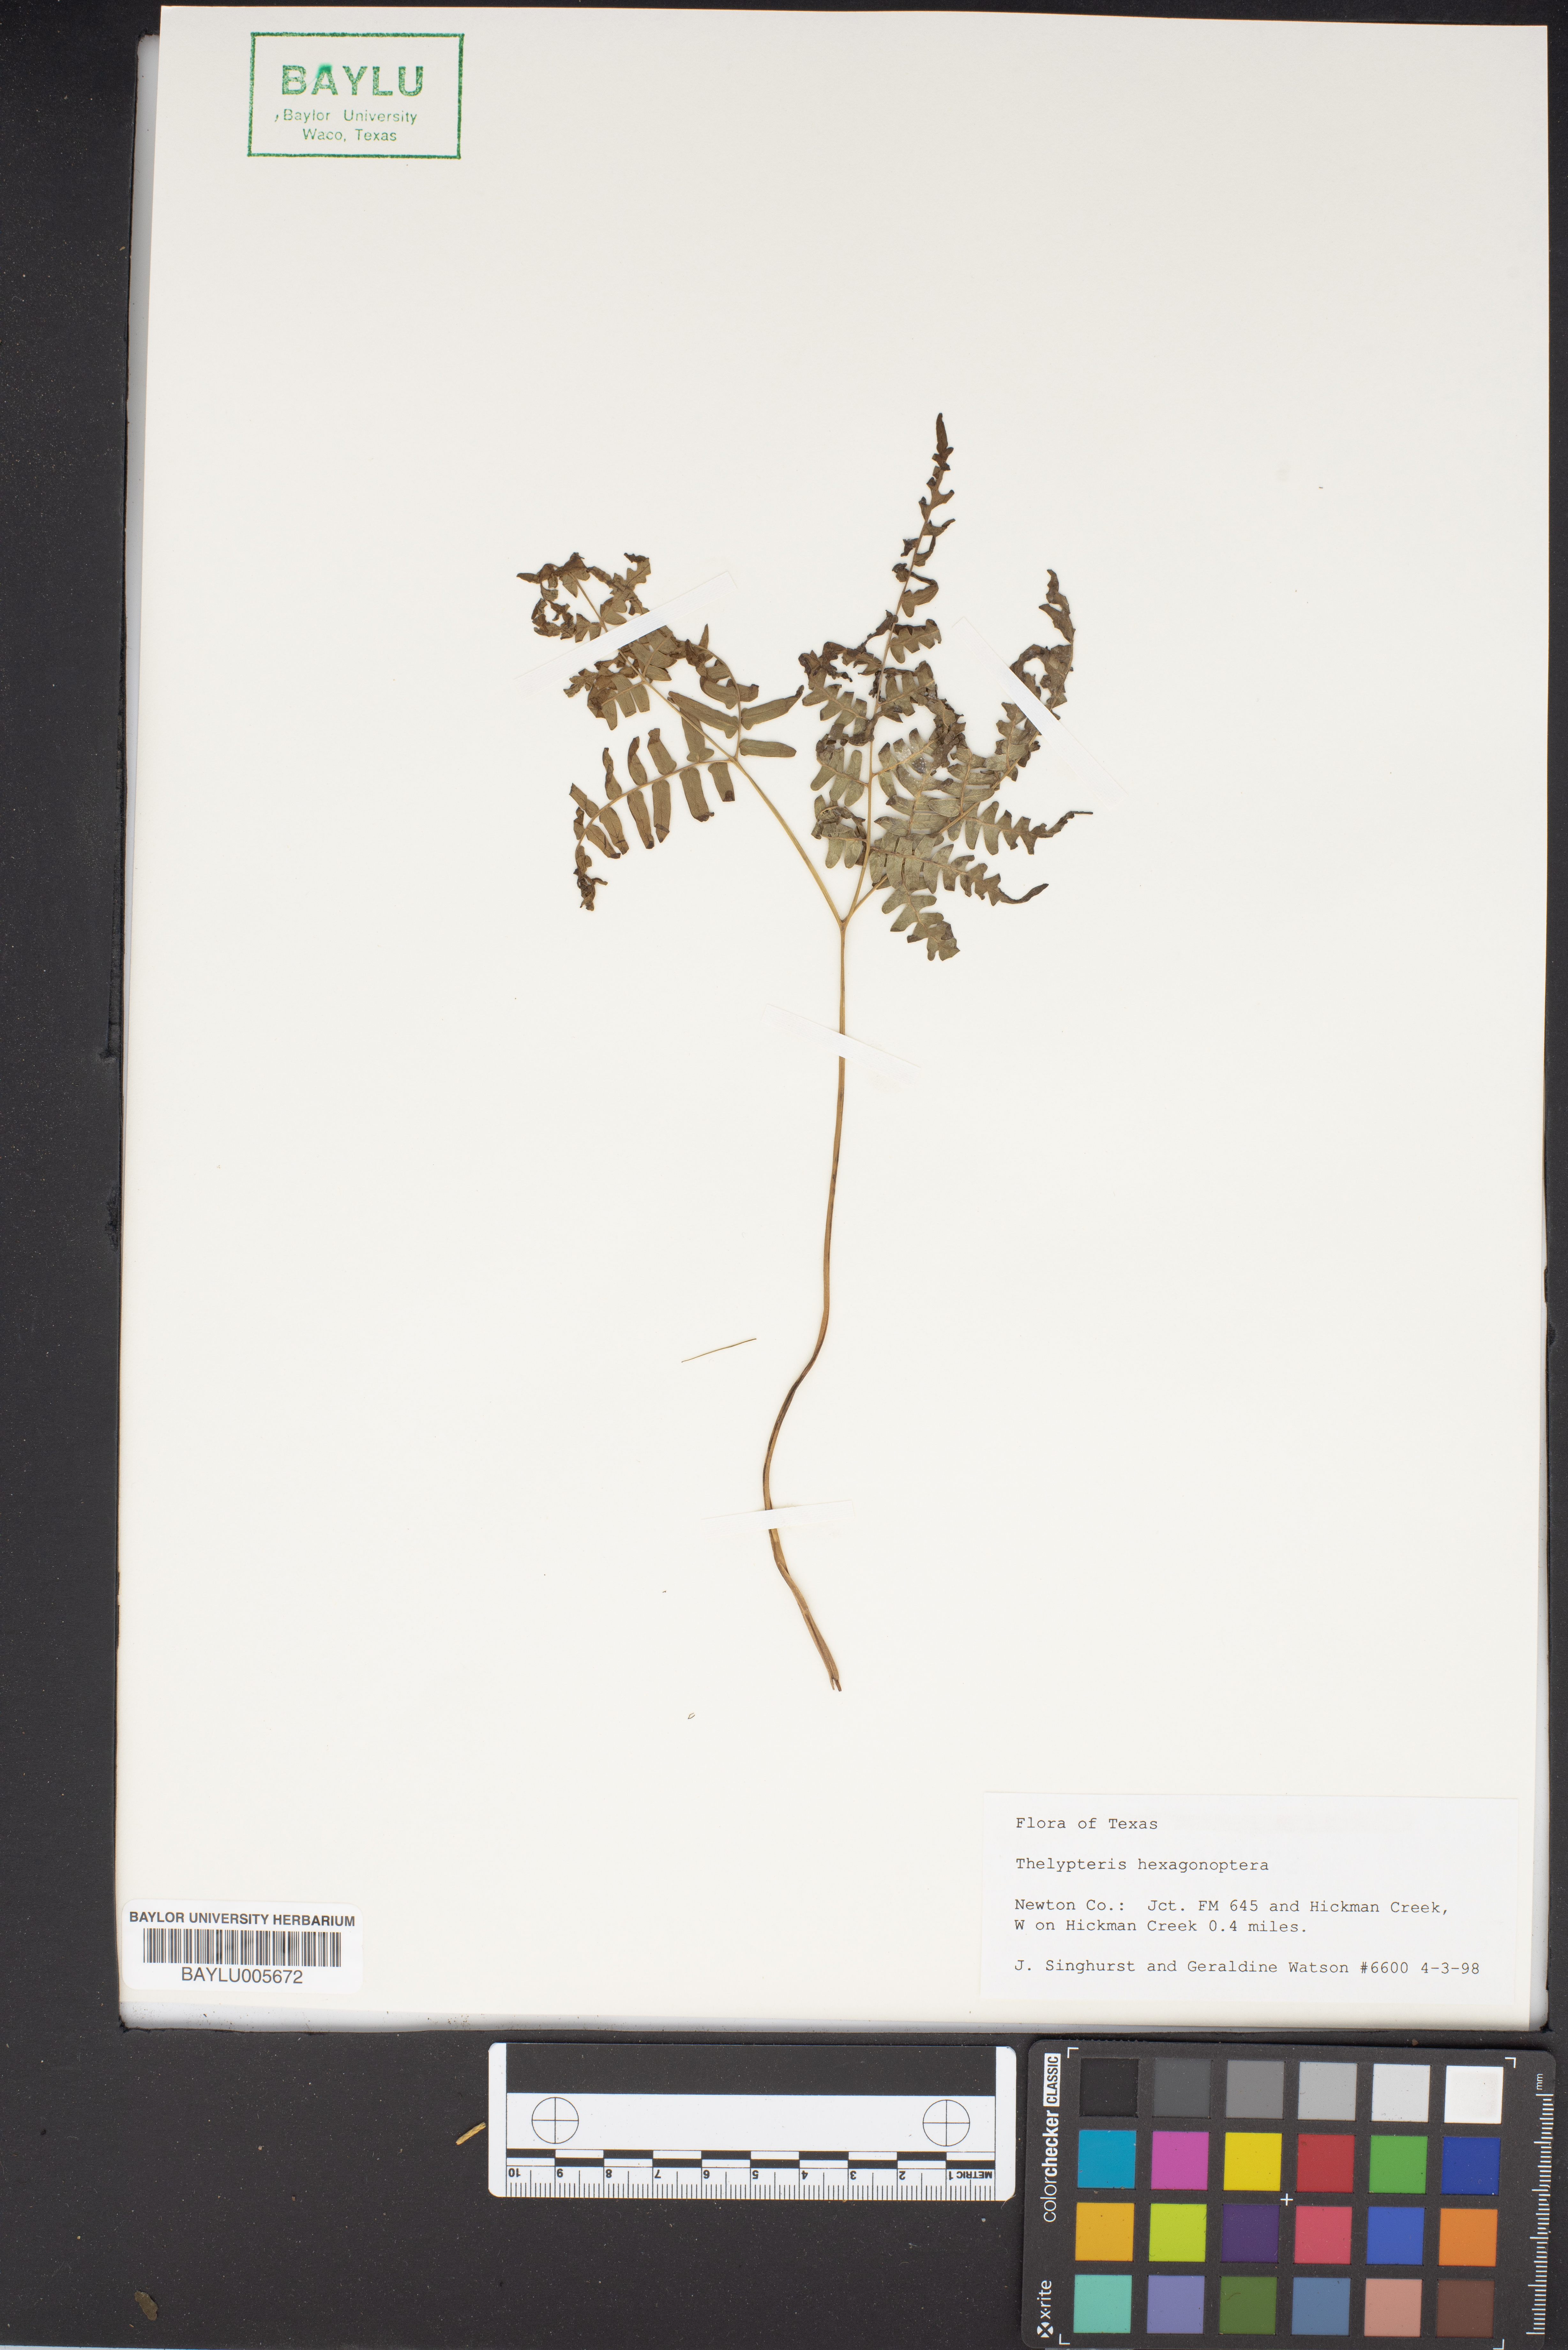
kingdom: Plantae
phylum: Tracheophyta
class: Polypodiopsida
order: Polypodiales
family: Thelypteridaceae
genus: Phegopteris
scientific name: Phegopteris hexagonoptera
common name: Broad beech fern
